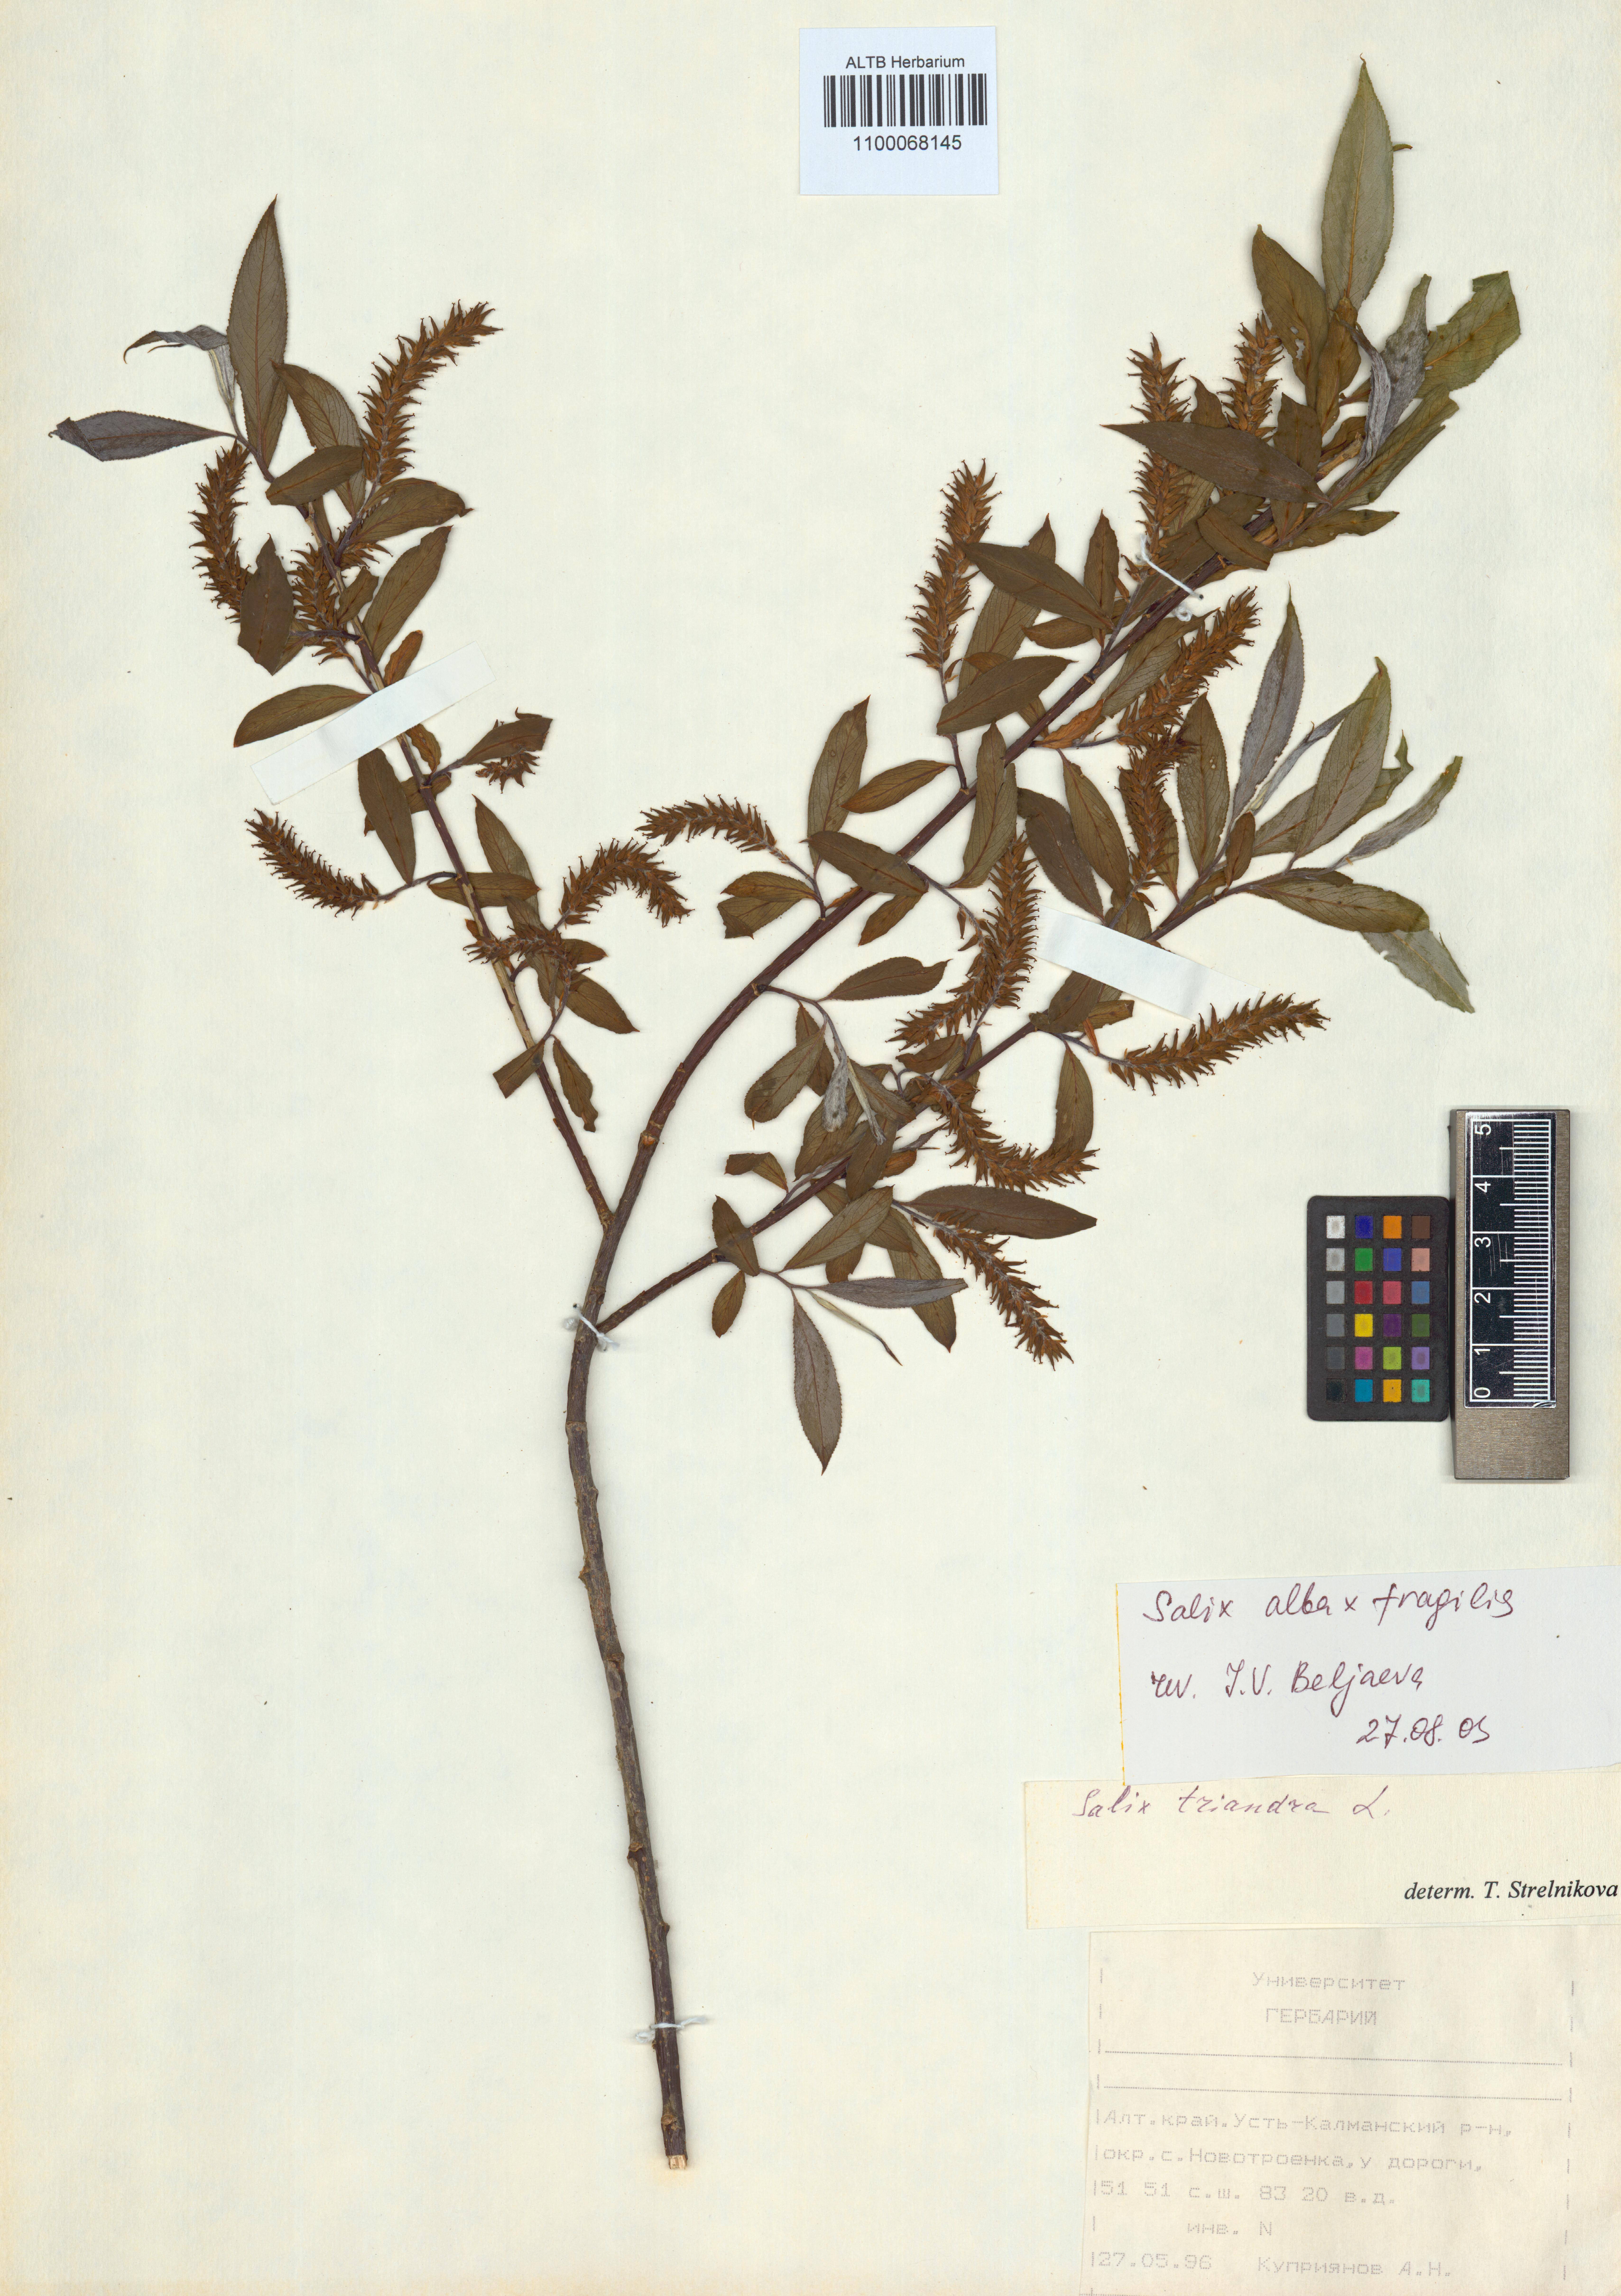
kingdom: Plantae
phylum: Tracheophyta
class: Magnoliopsida
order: Malpighiales
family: Salicaceae
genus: Salix
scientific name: Salix alba
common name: White willow
